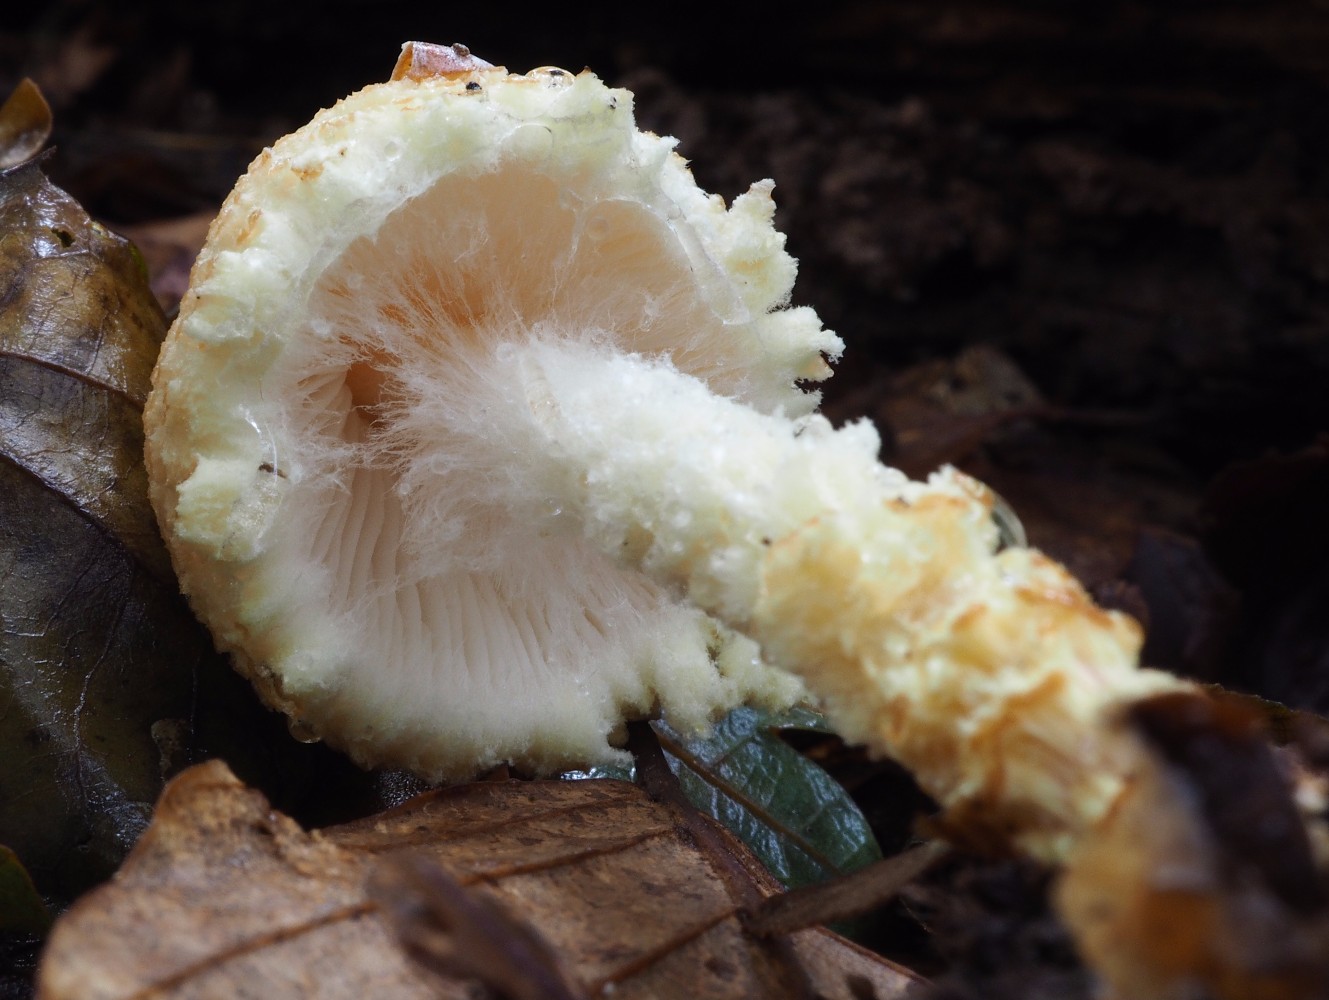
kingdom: Fungi
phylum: Basidiomycota
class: Agaricomycetes
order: Agaricales
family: Agaricaceae
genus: Lepiota
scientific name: Lepiota magnispora
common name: gulfnugget parasolhat
